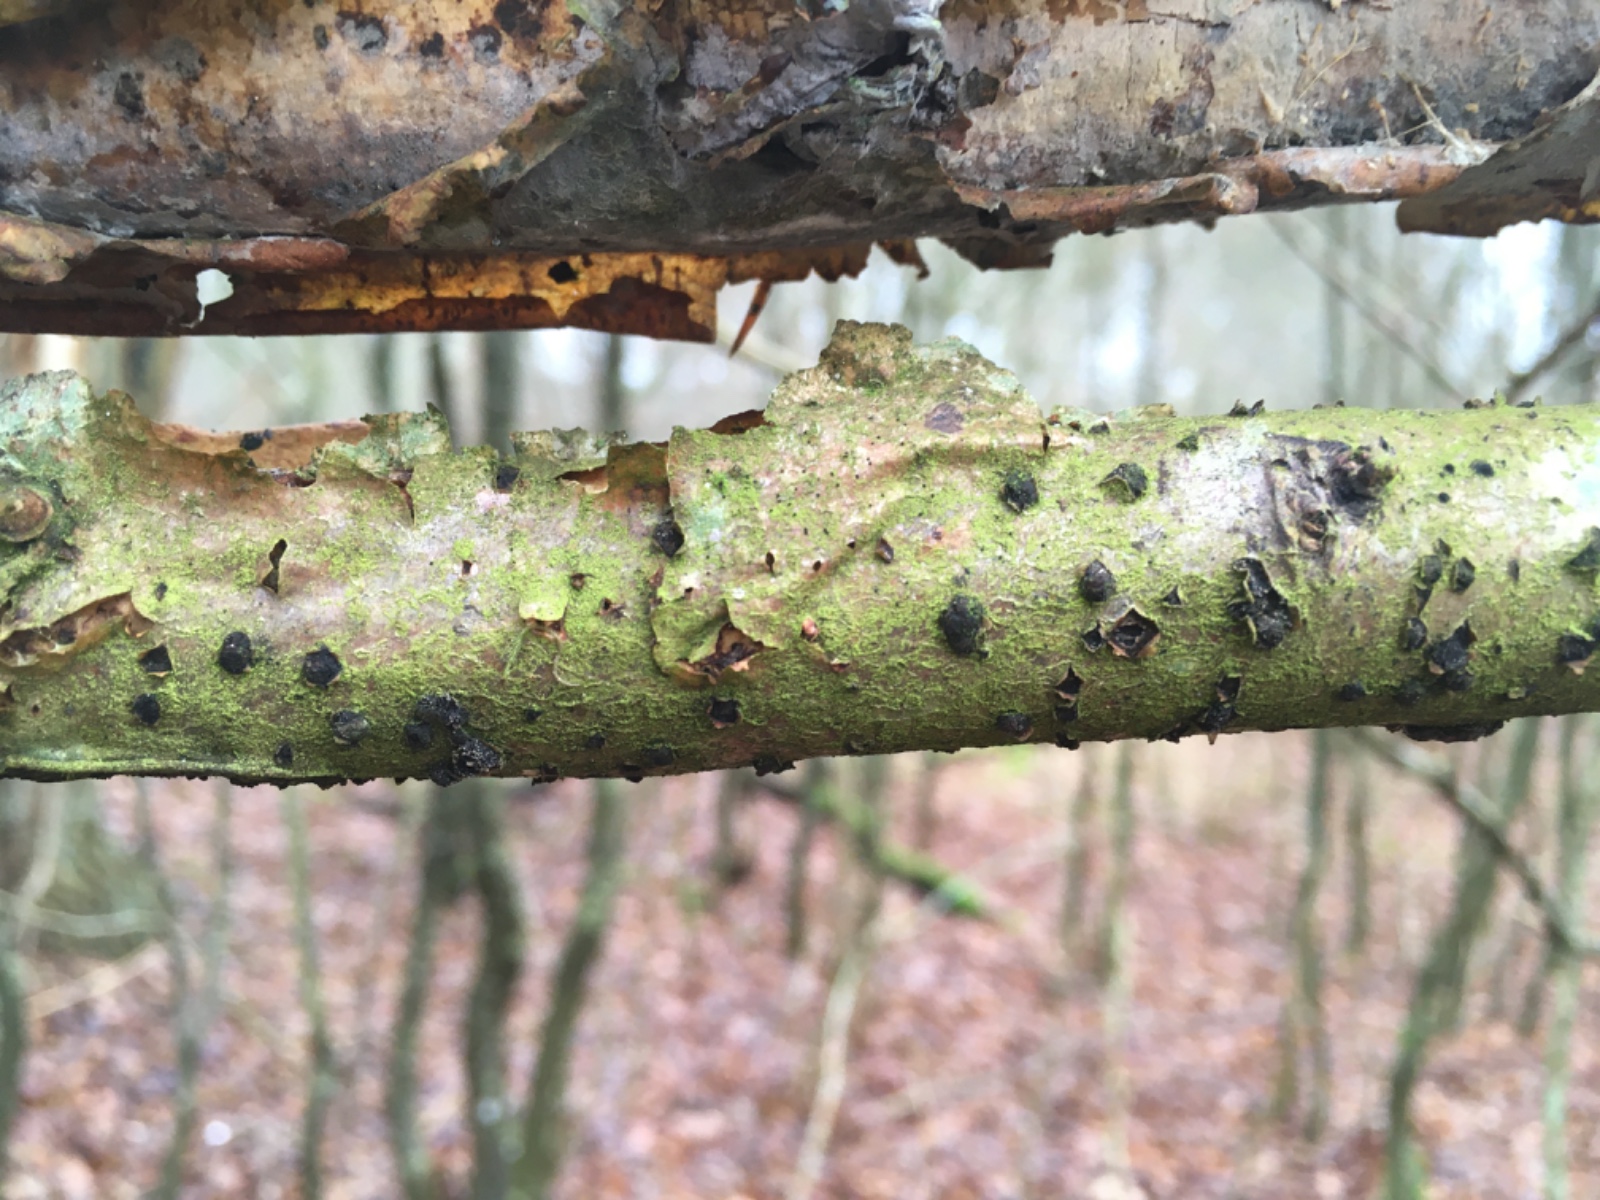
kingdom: Fungi
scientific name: Fungi
